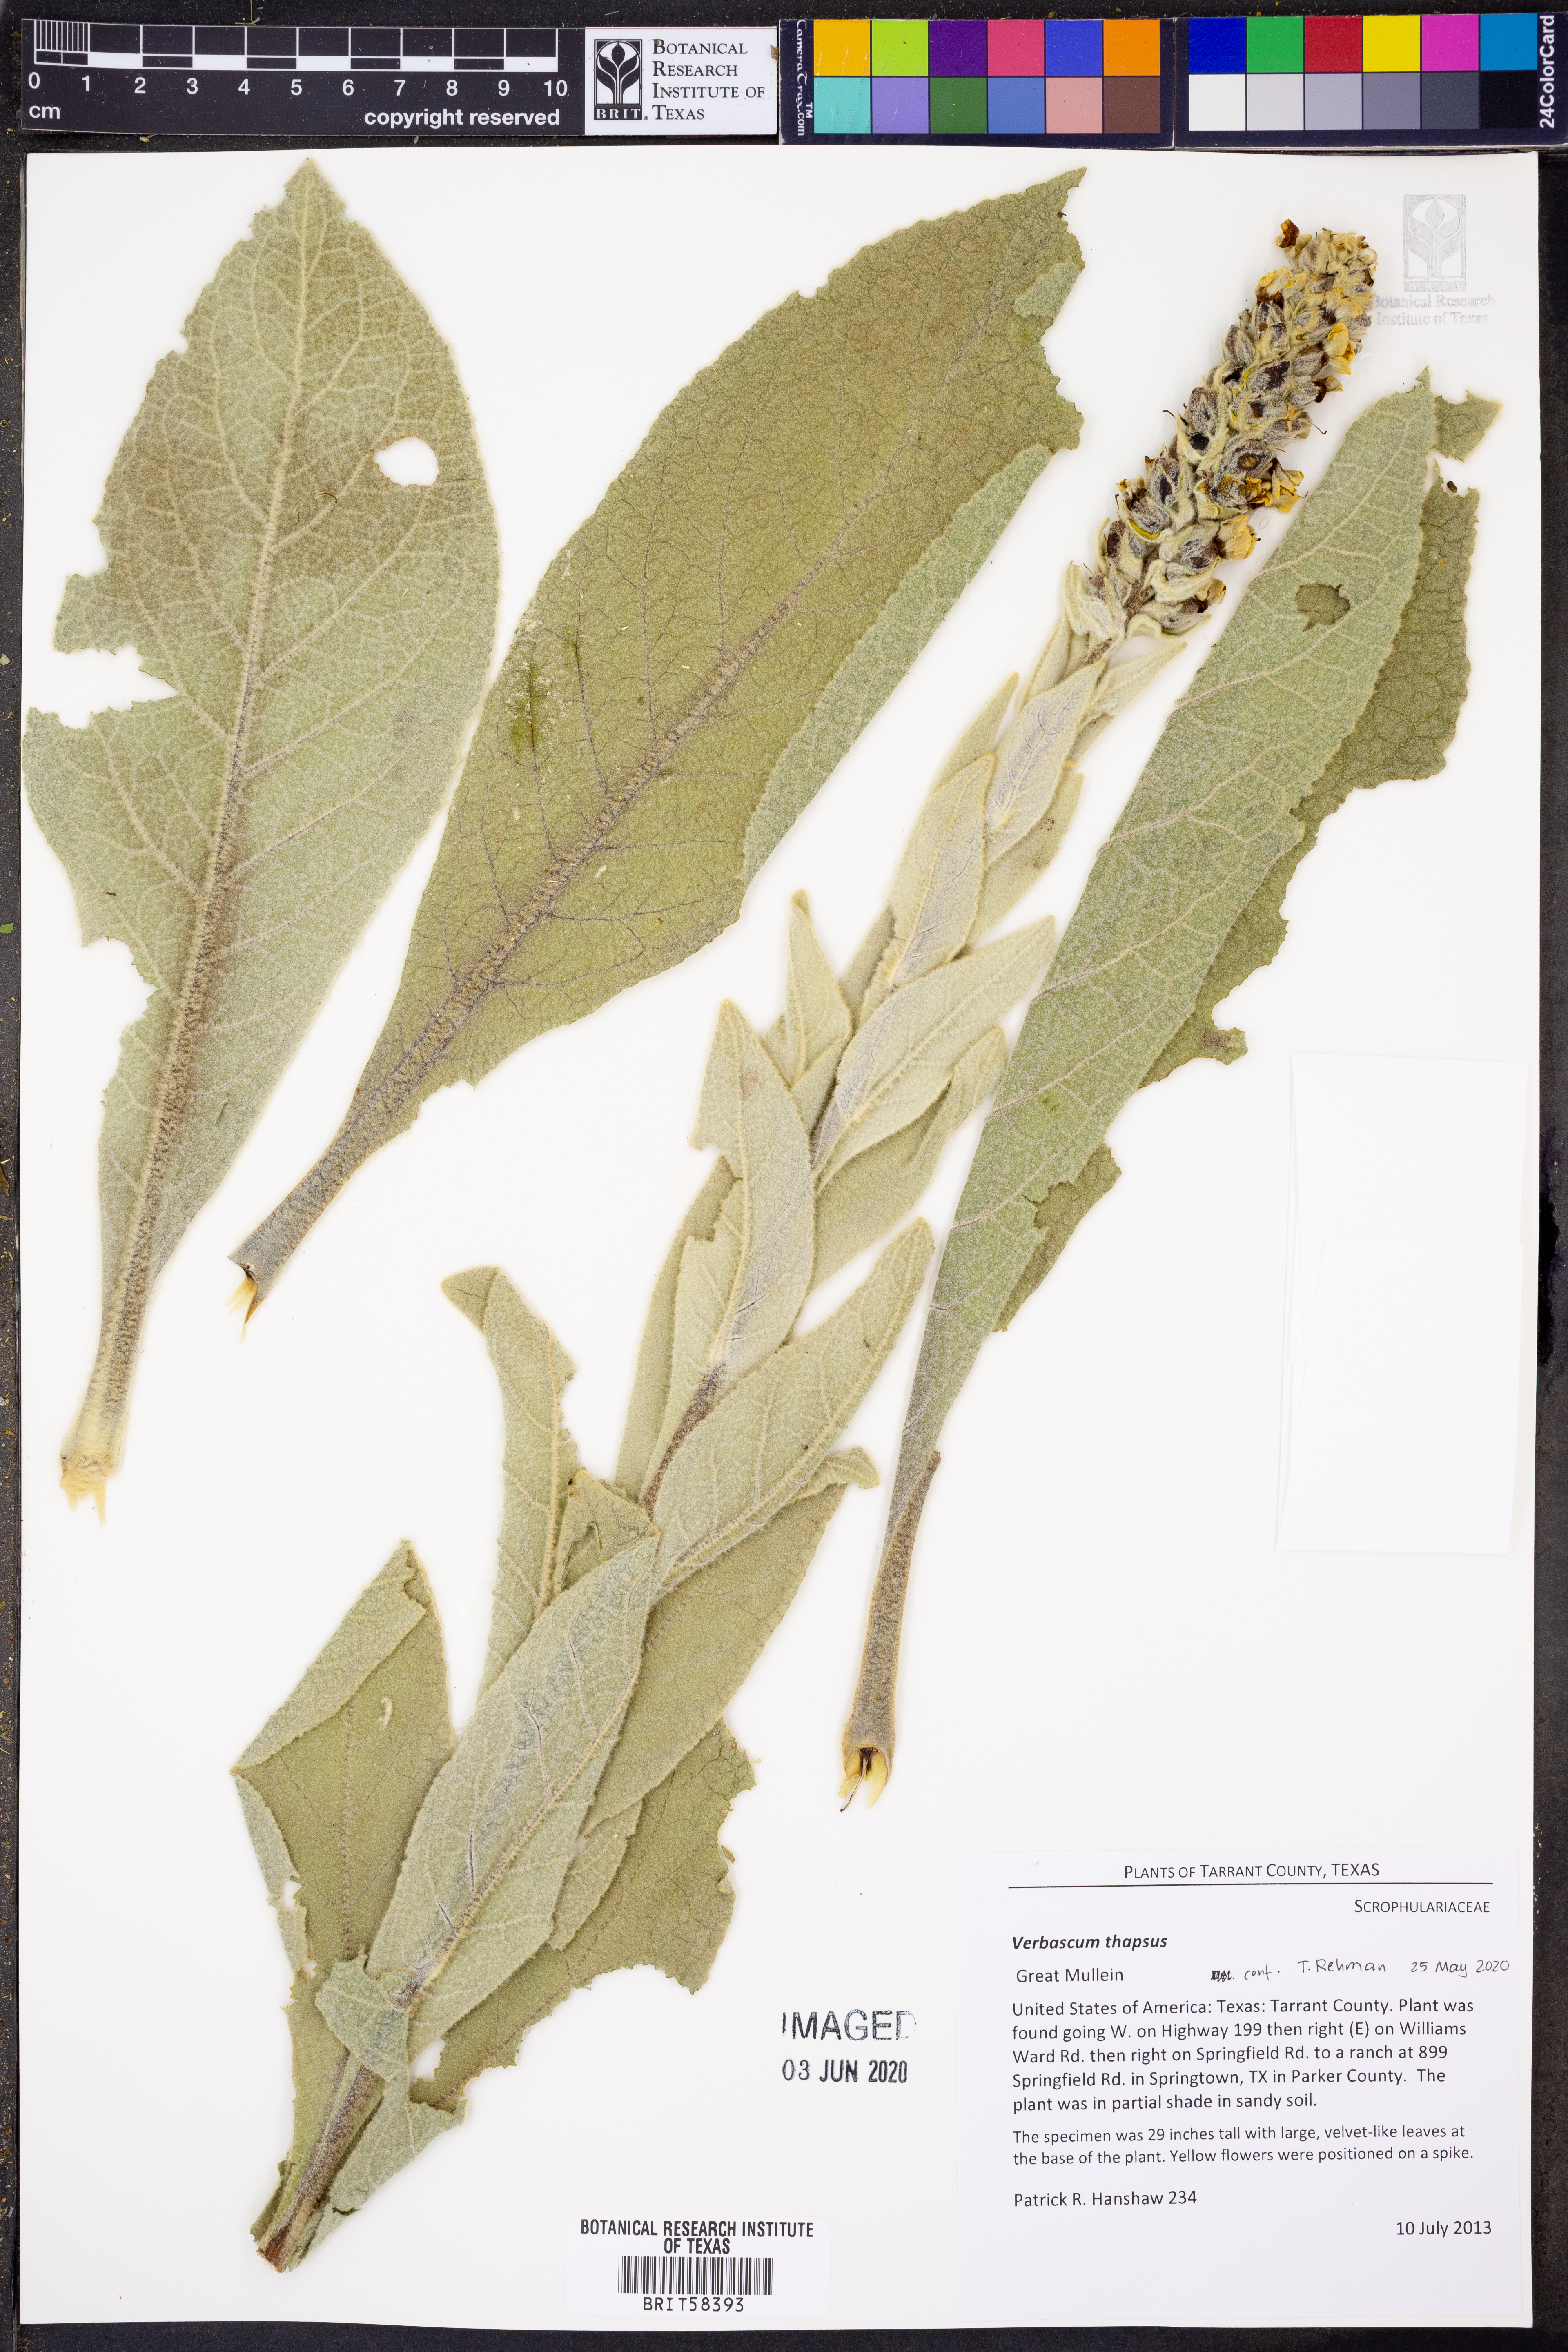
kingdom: Plantae
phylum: Tracheophyta
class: Magnoliopsida
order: Lamiales
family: Scrophulariaceae
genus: Verbascum
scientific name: Verbascum thapsus
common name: Common mullein
